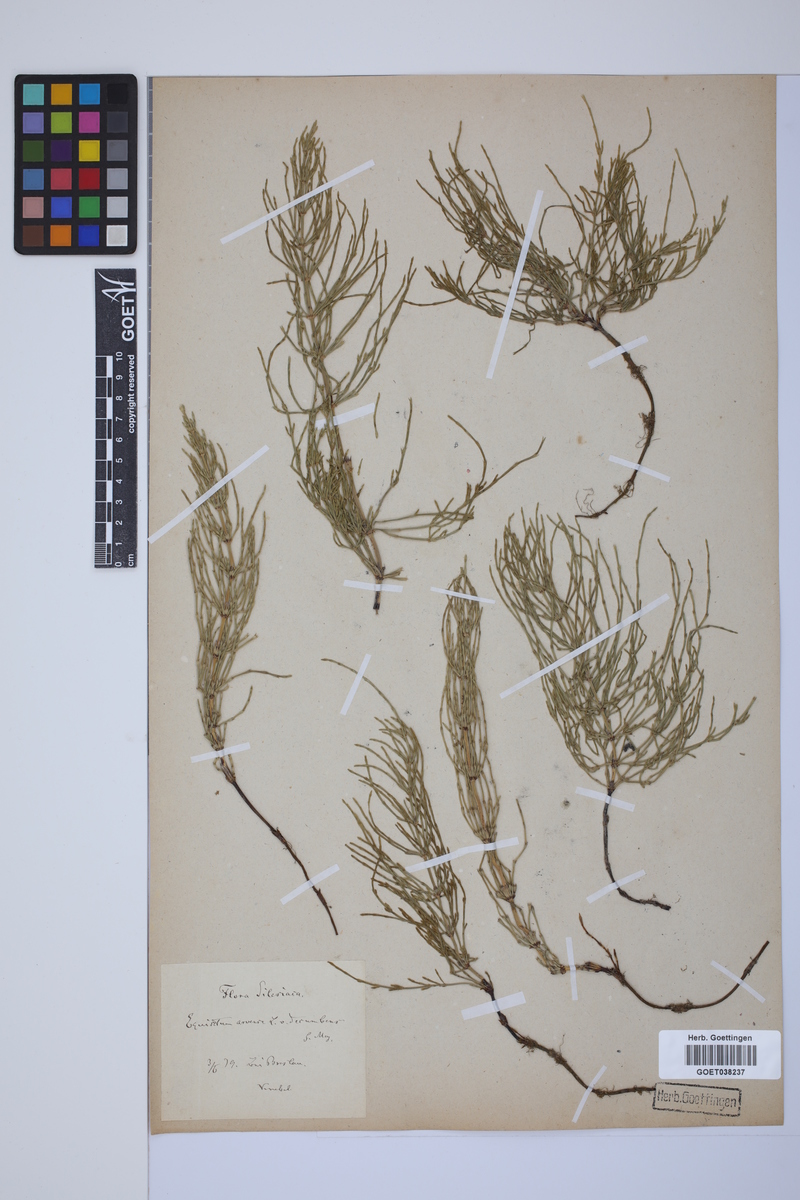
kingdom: Plantae
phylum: Tracheophyta
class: Polypodiopsida
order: Equisetales
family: Equisetaceae
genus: Equisetum
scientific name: Equisetum arvense
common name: Field horsetail
